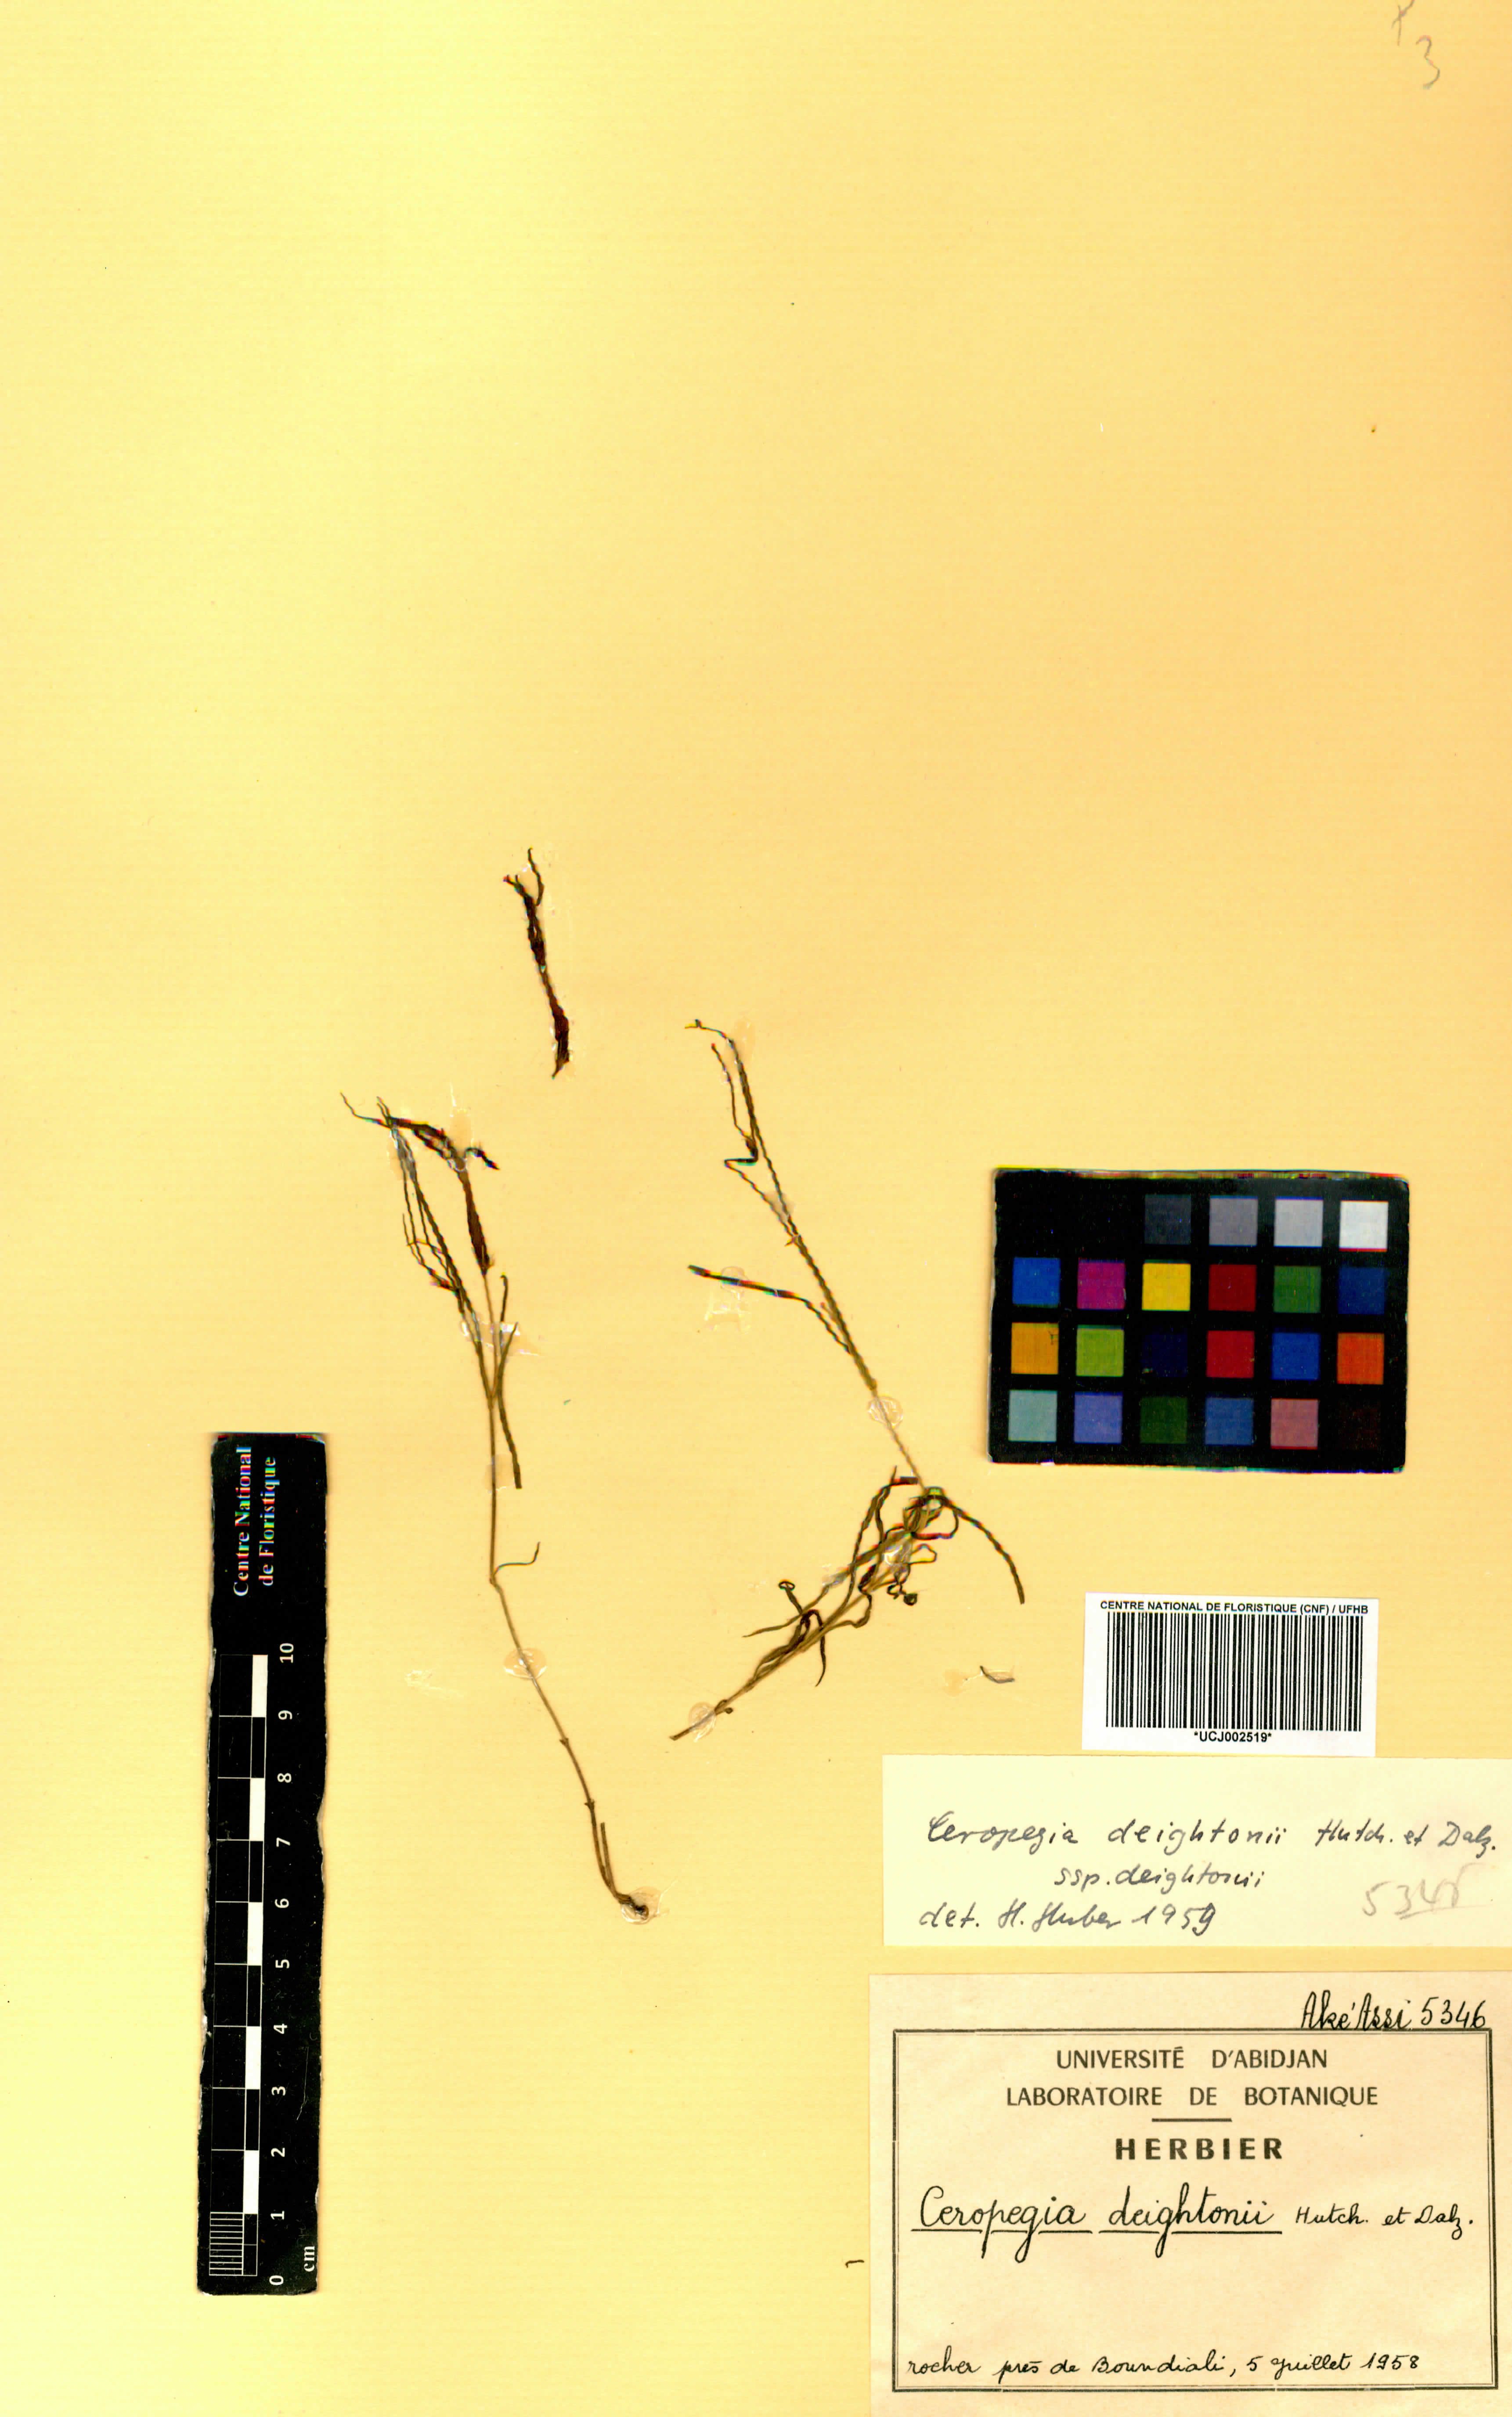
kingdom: Plantae
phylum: Tracheophyta
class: Magnoliopsida
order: Gentianales
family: Apocynaceae
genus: Ceropegia
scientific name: Ceropegia deightonii
